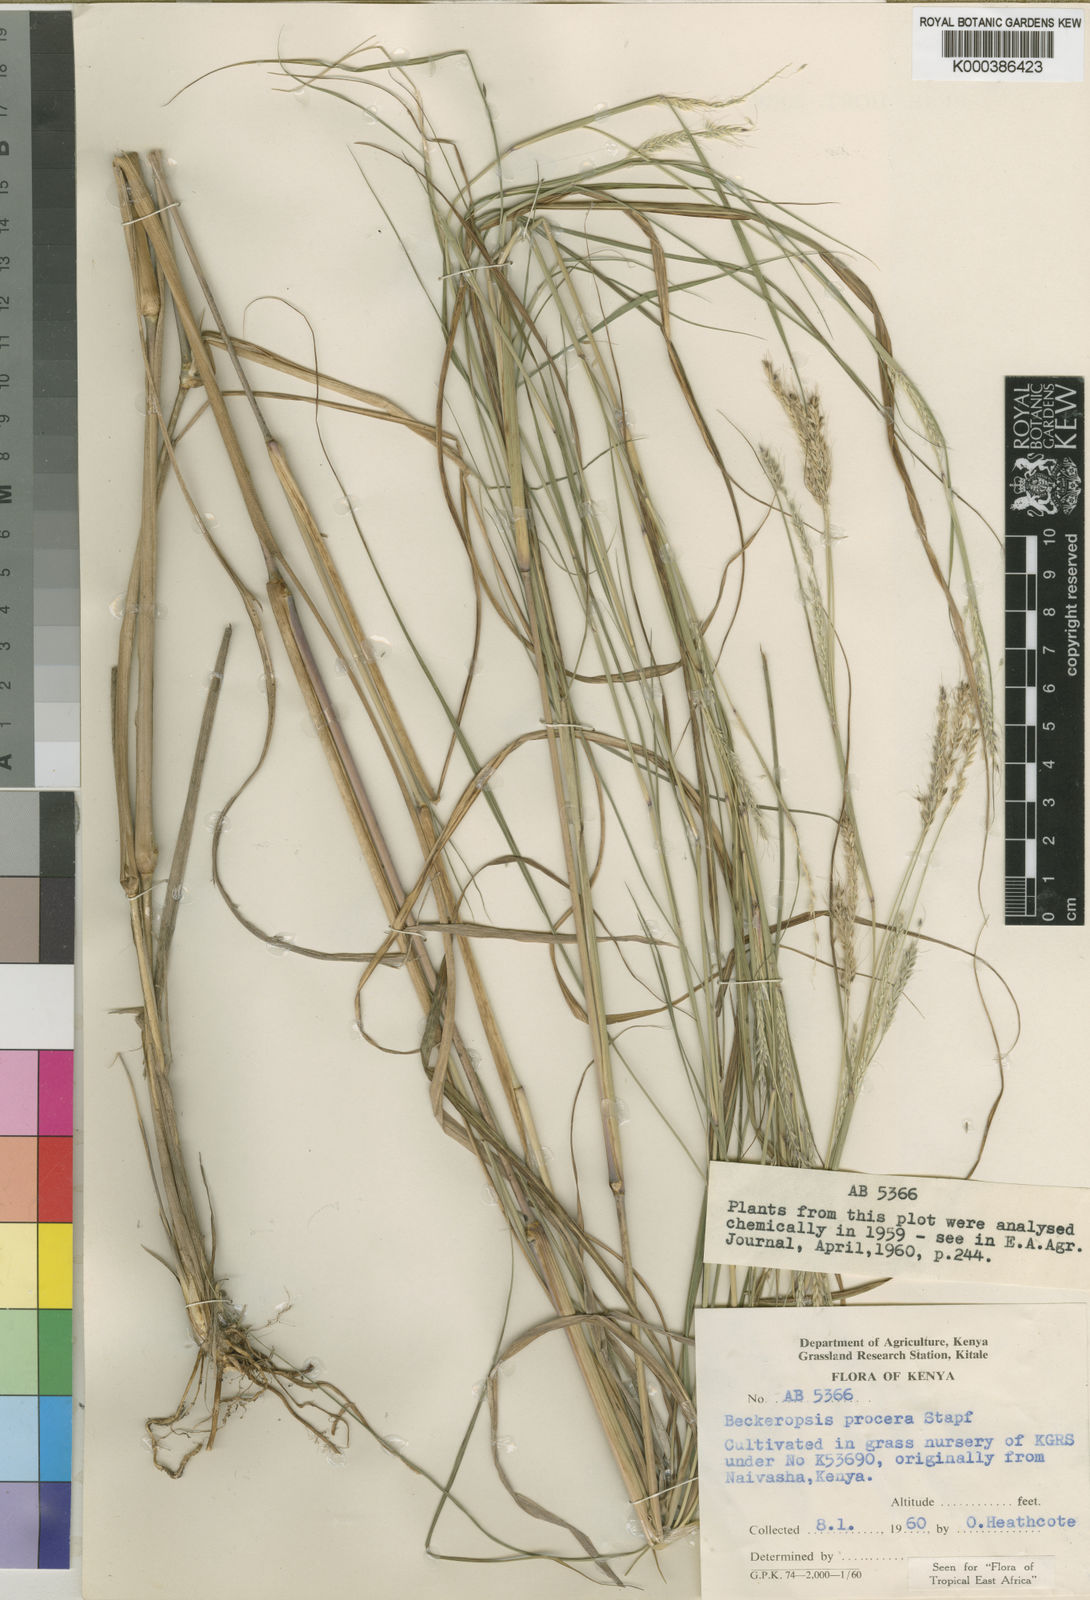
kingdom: Plantae
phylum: Tracheophyta
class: Liliopsida
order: Poales
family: Poaceae
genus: Cenchrus
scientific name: Cenchrus procerus
